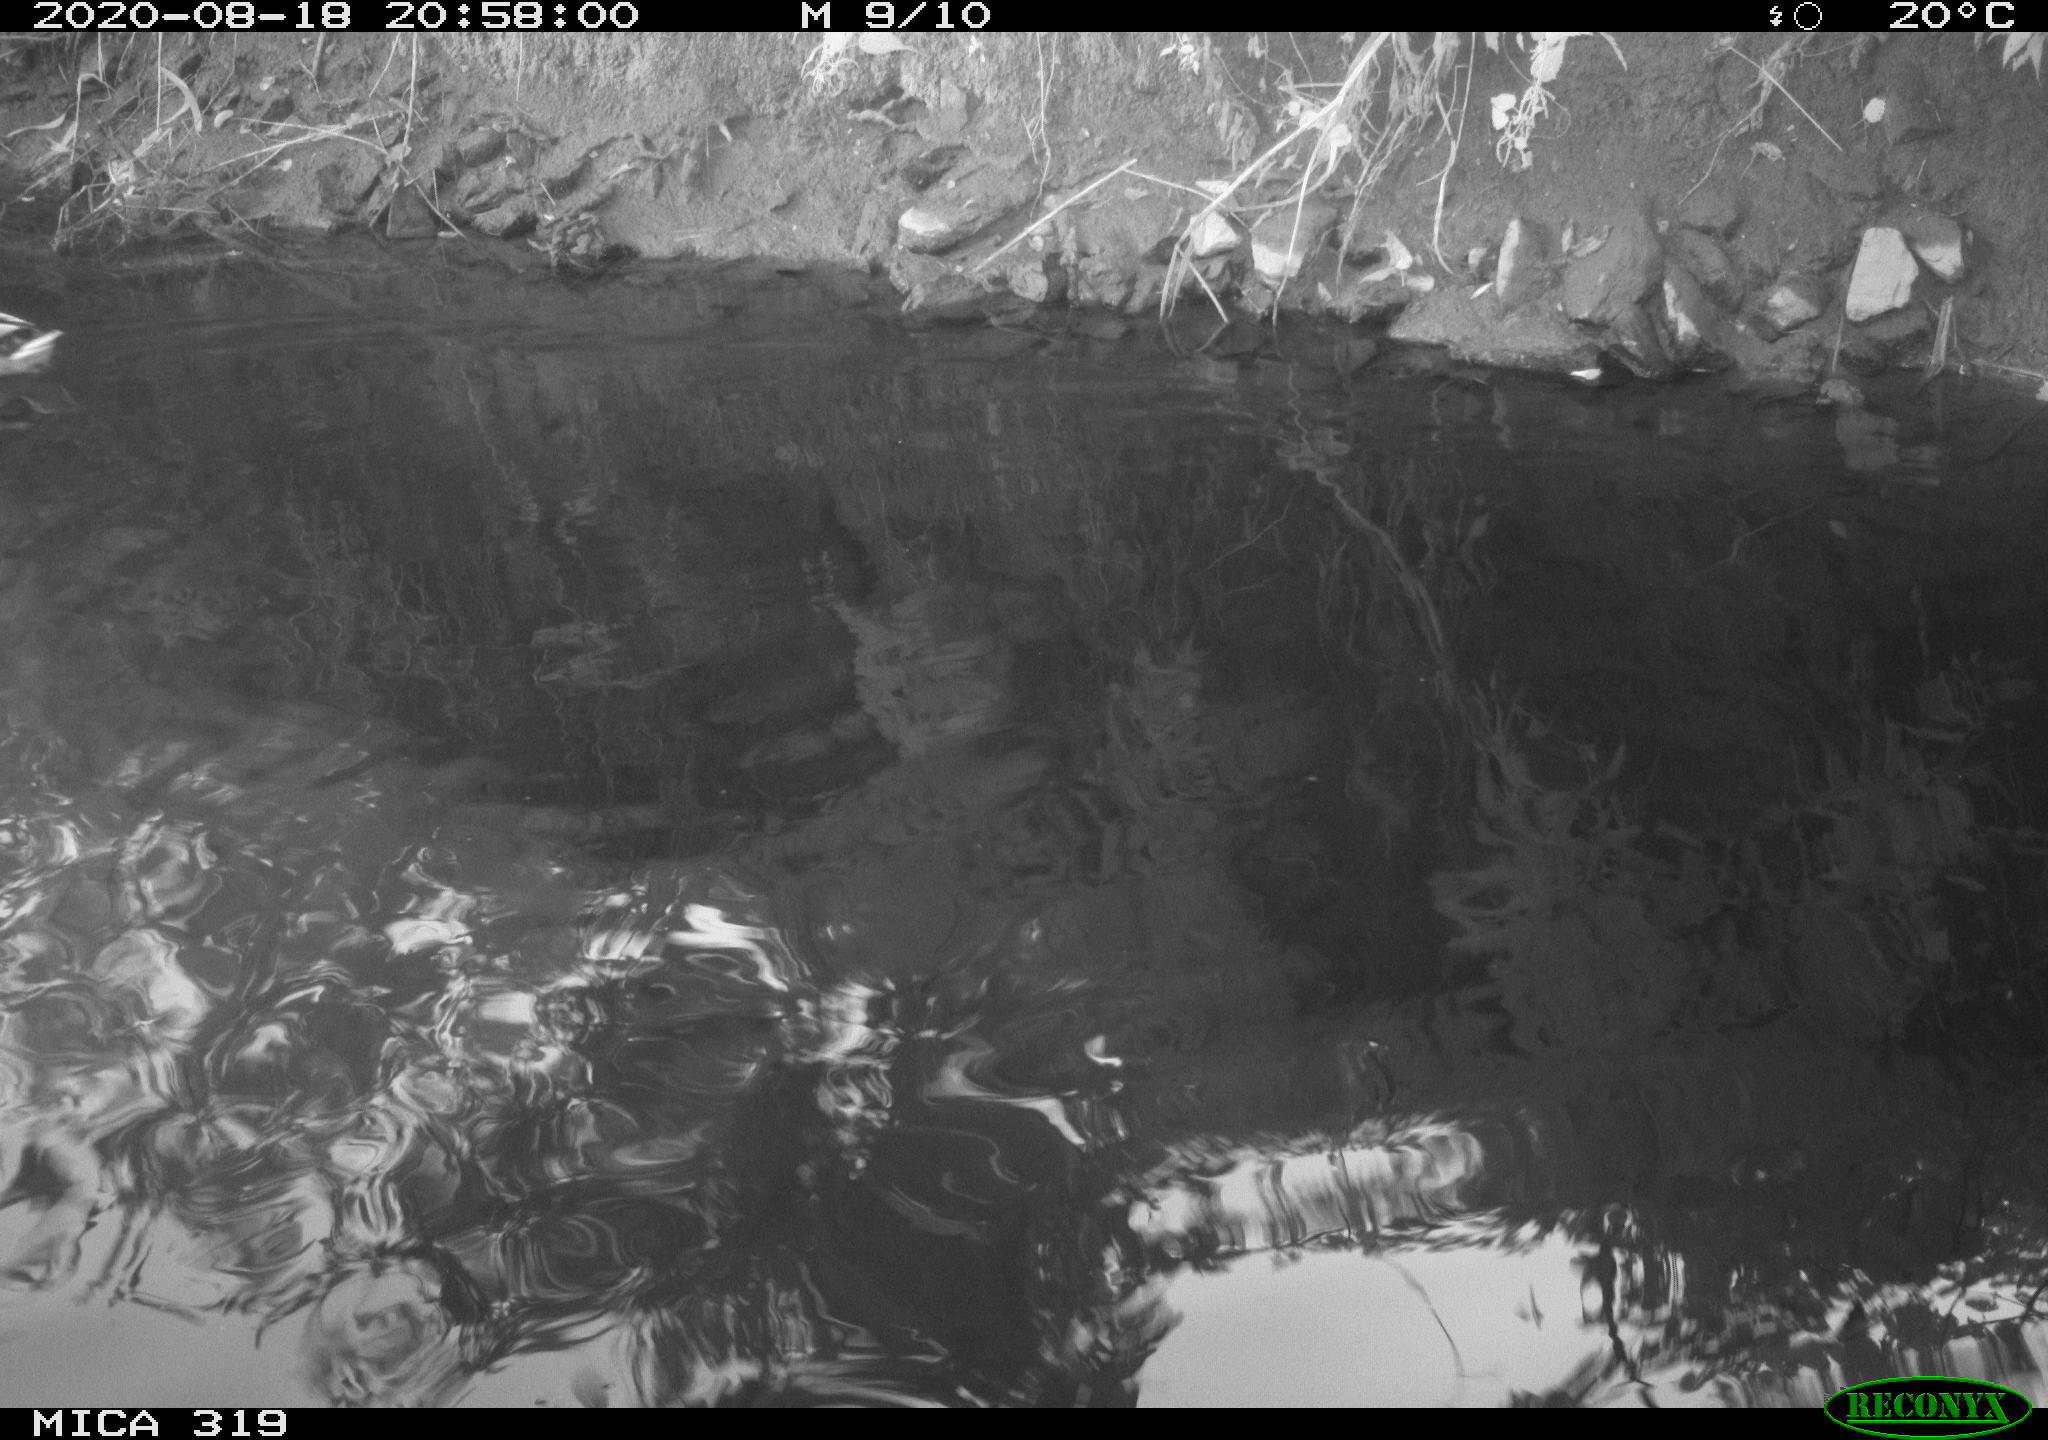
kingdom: Animalia
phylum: Chordata
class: Aves
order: Anseriformes
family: Anatidae
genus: Anas
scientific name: Anas platyrhynchos
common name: Mallard
